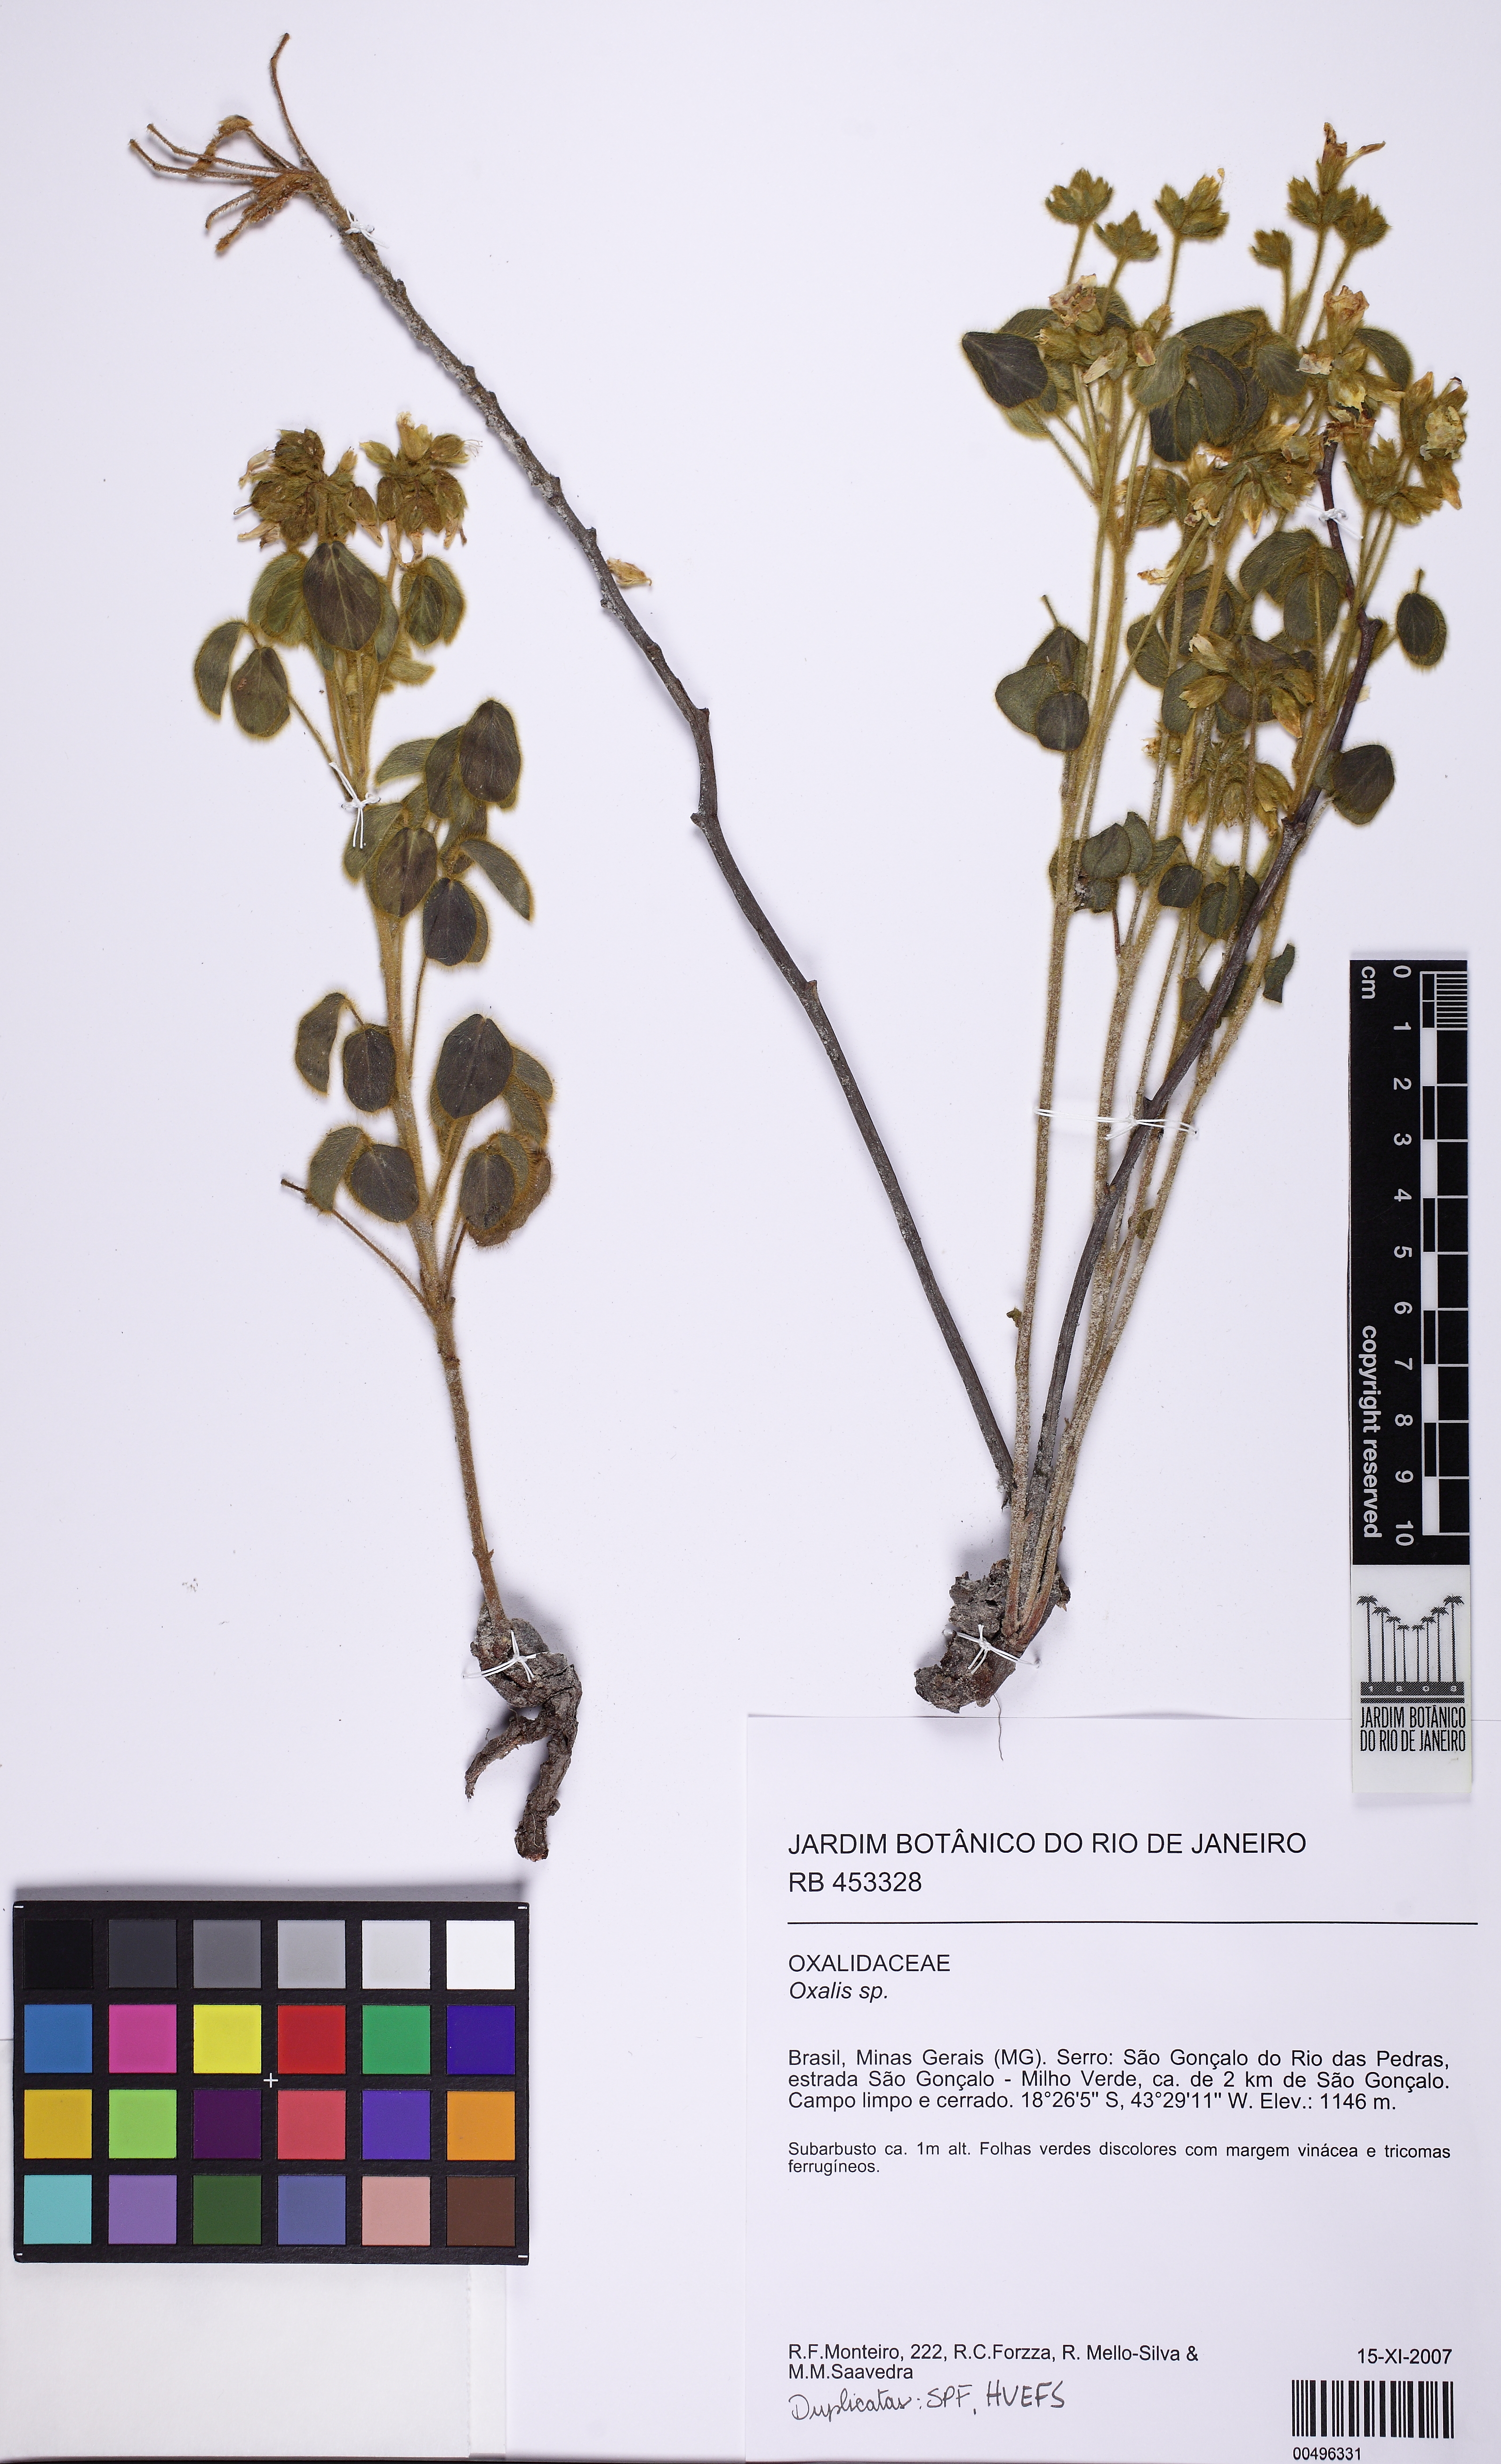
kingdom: Plantae
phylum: Tracheophyta
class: Magnoliopsida
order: Oxalidales
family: Oxalidaceae
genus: Oxalis
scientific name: Oxalis hirsutissima
